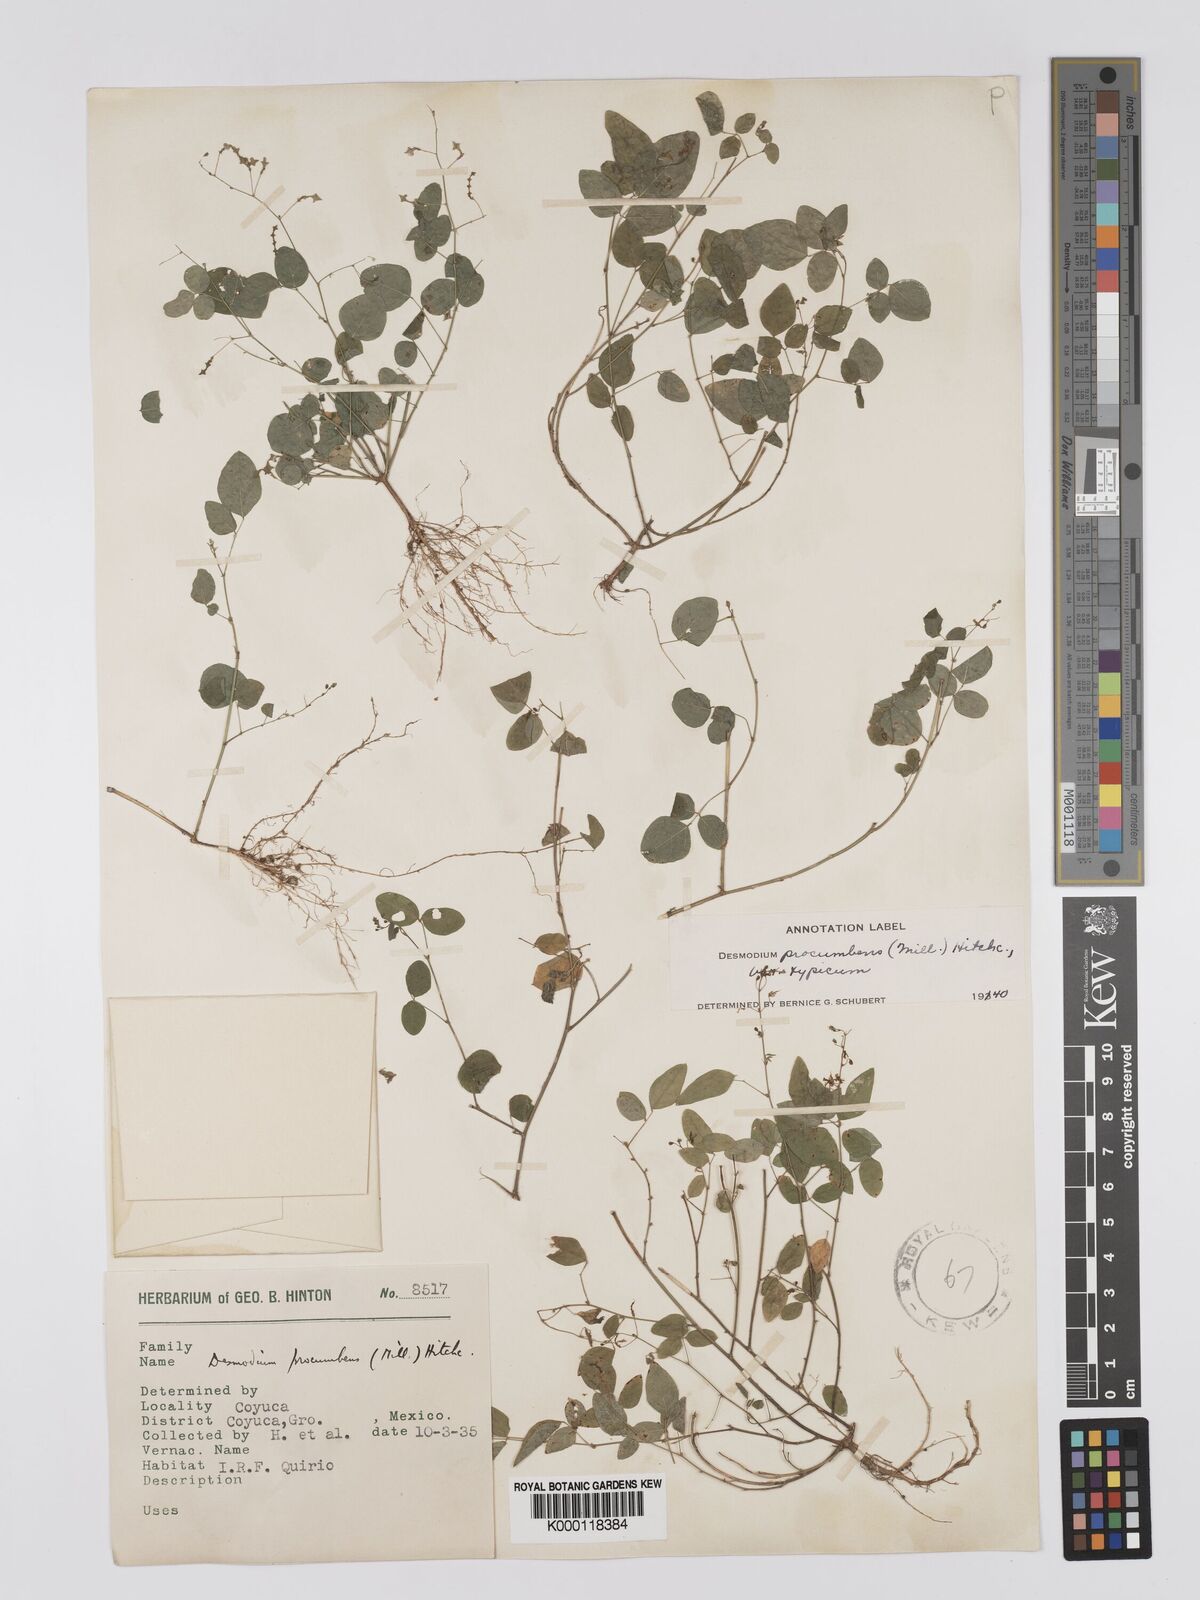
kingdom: Plantae
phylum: Tracheophyta
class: Magnoliopsida
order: Fabales
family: Fabaceae
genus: Desmodium
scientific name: Desmodium procumbens
